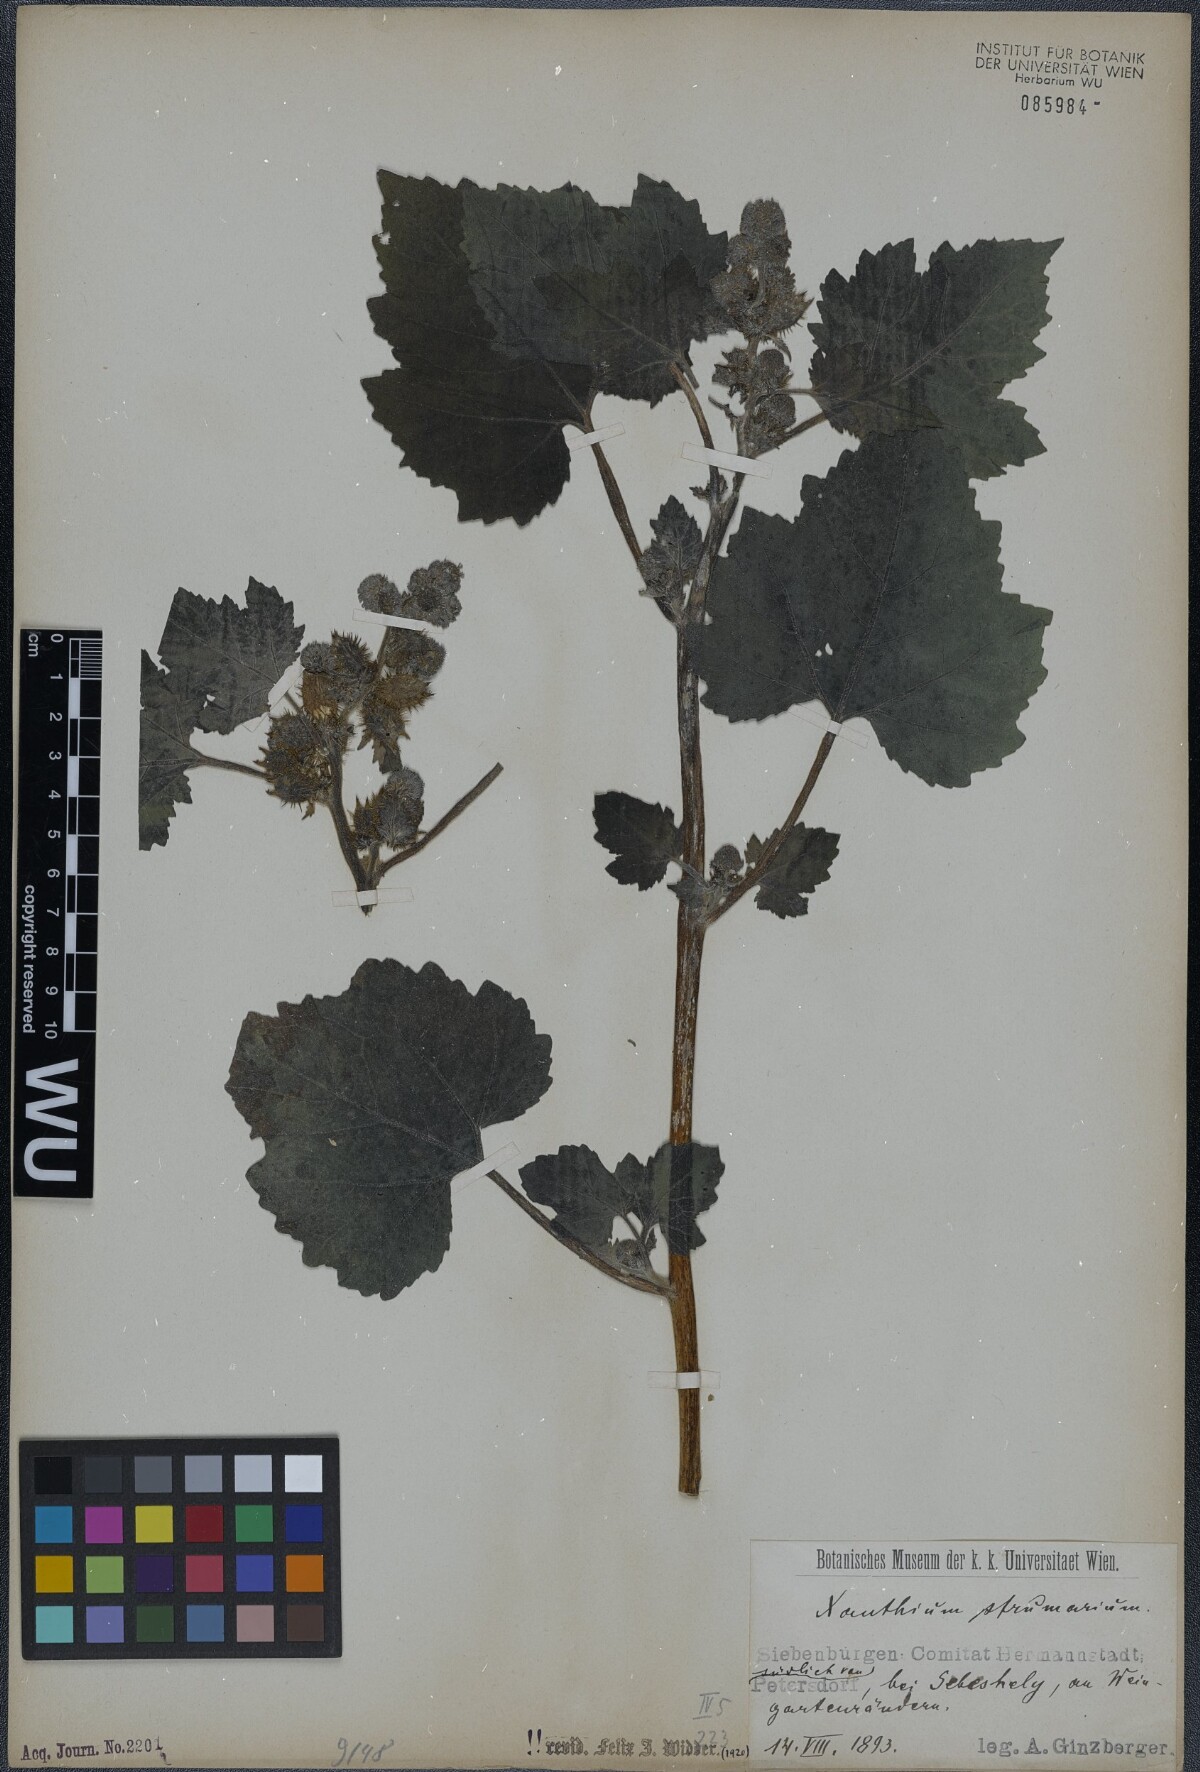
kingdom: Plantae
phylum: Tracheophyta
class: Magnoliopsida
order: Asterales
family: Asteraceae
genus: Xanthium
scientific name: Xanthium strumarium
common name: Rough cocklebur
